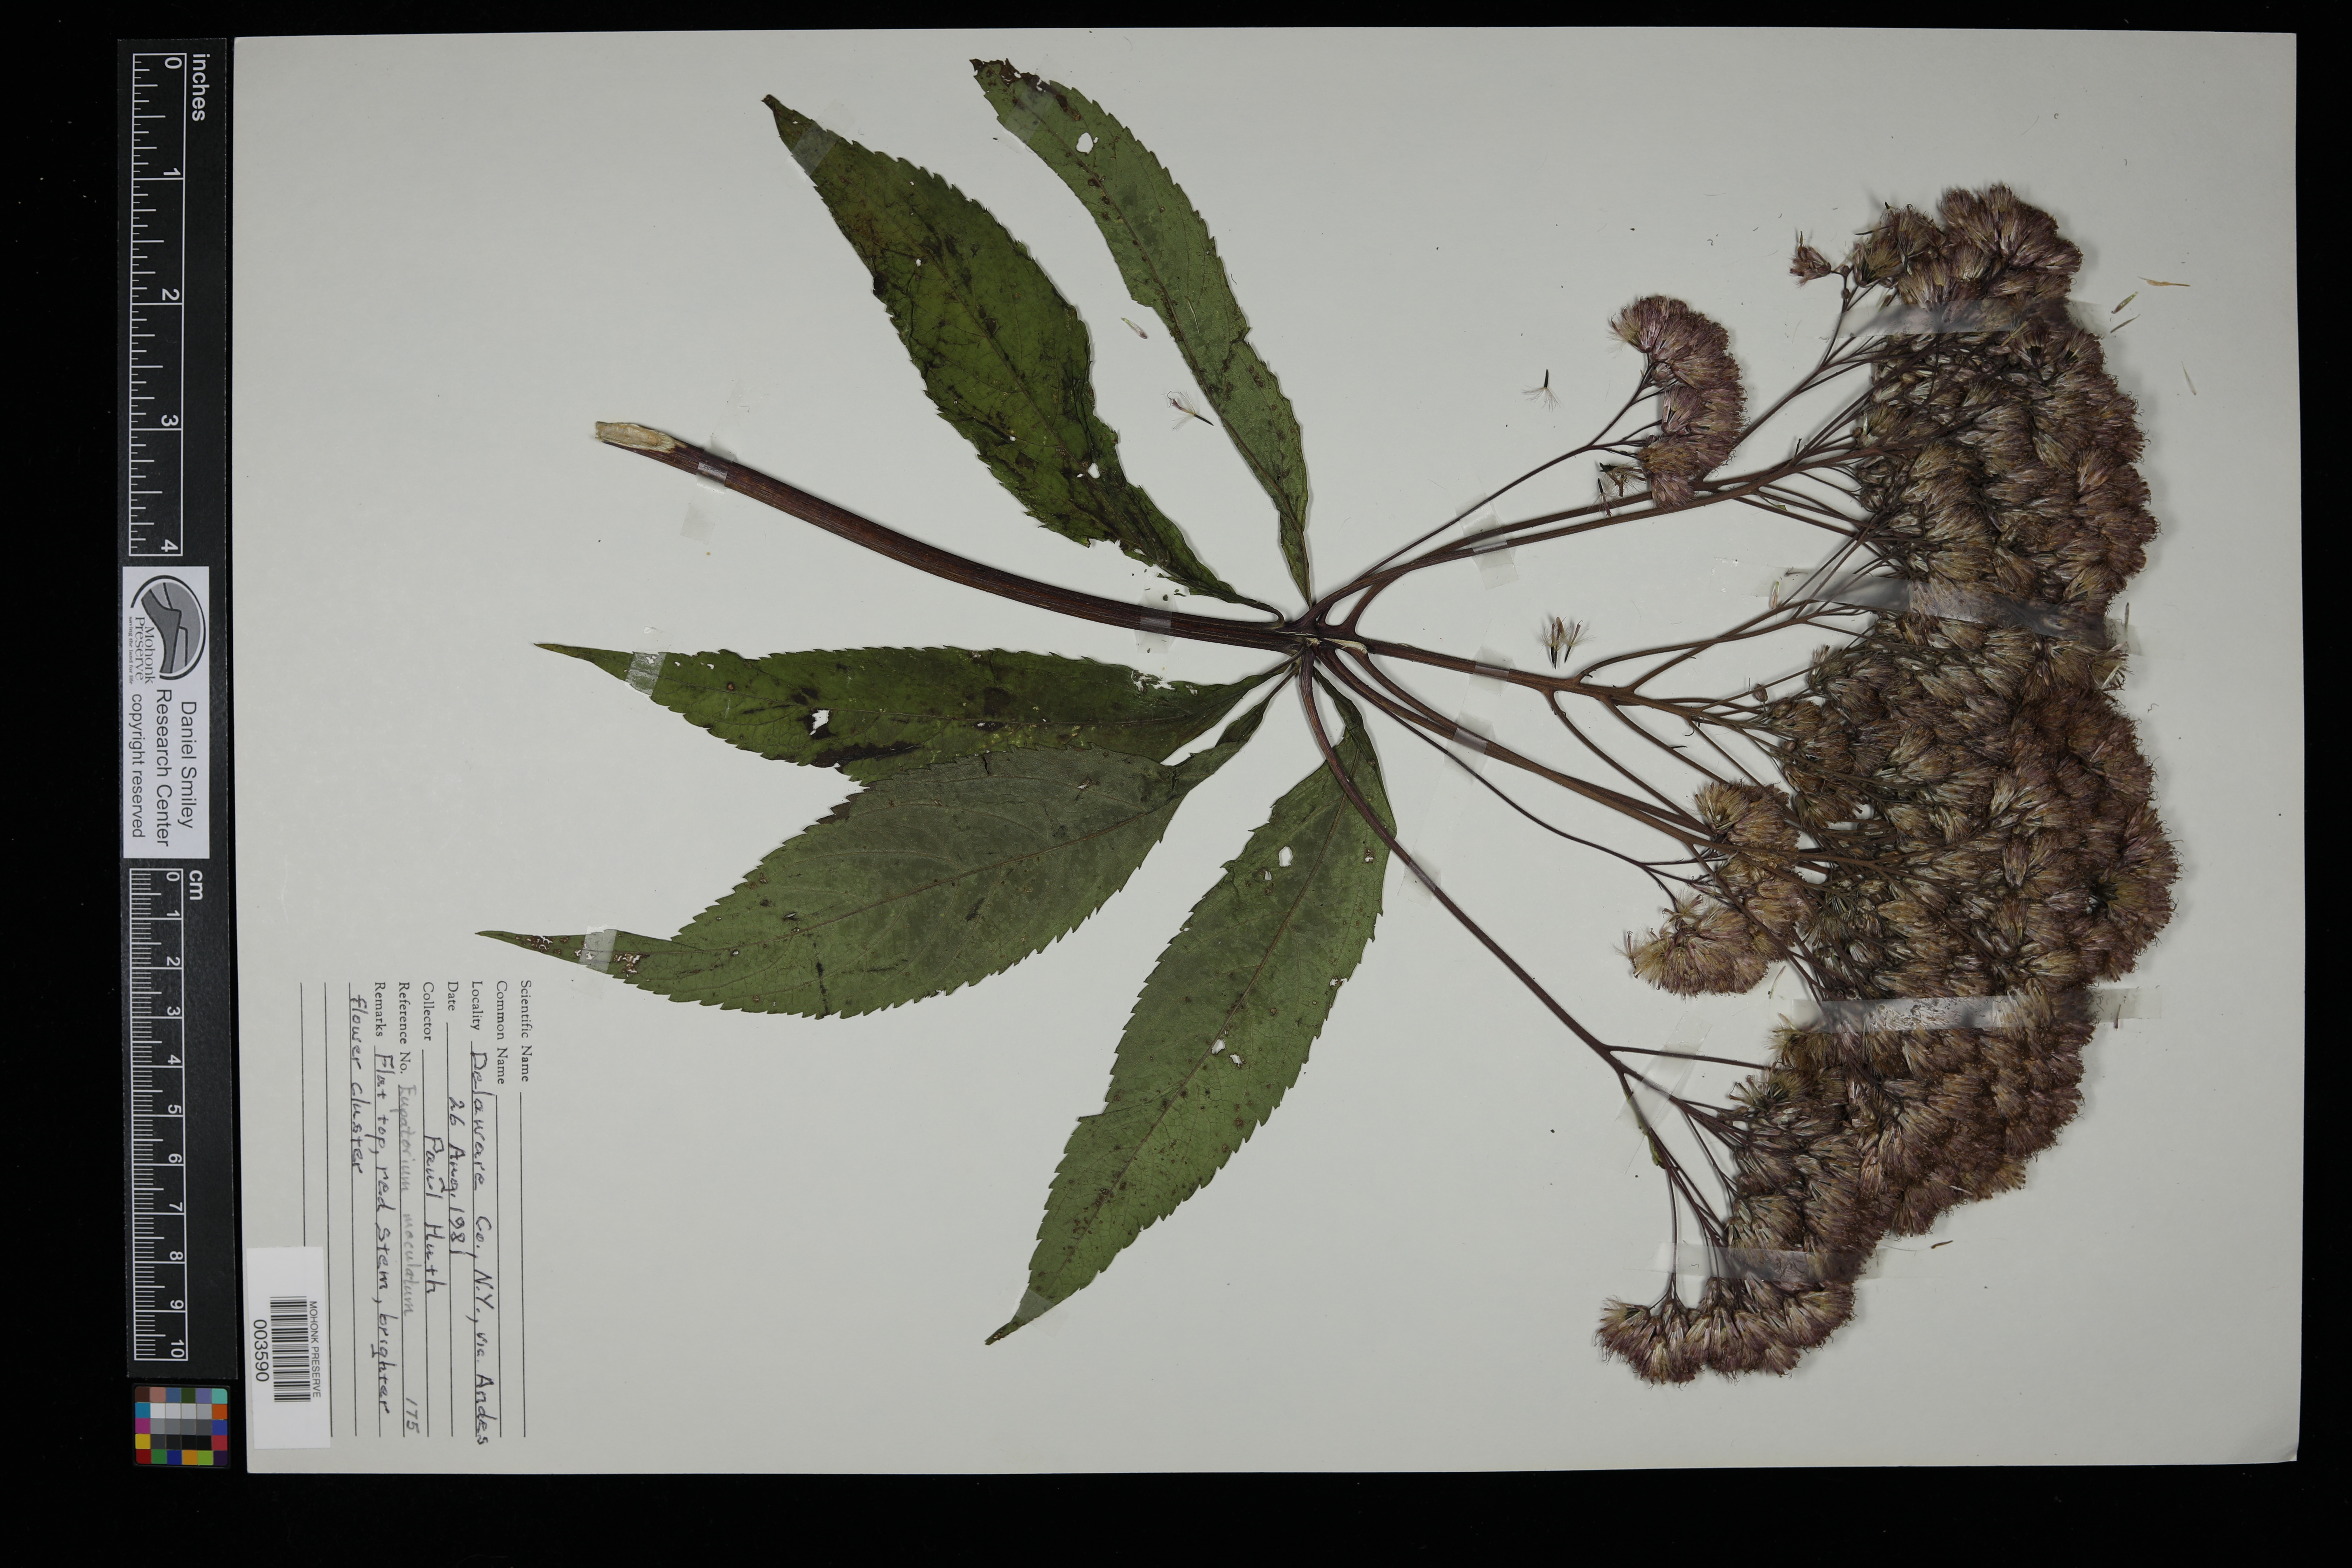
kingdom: Plantae
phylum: Tracheophyta
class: Magnoliopsida
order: Asterales
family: Asteraceae
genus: Eutrochium
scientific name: Eutrochium maculatum
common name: Spotted joe pye weed
